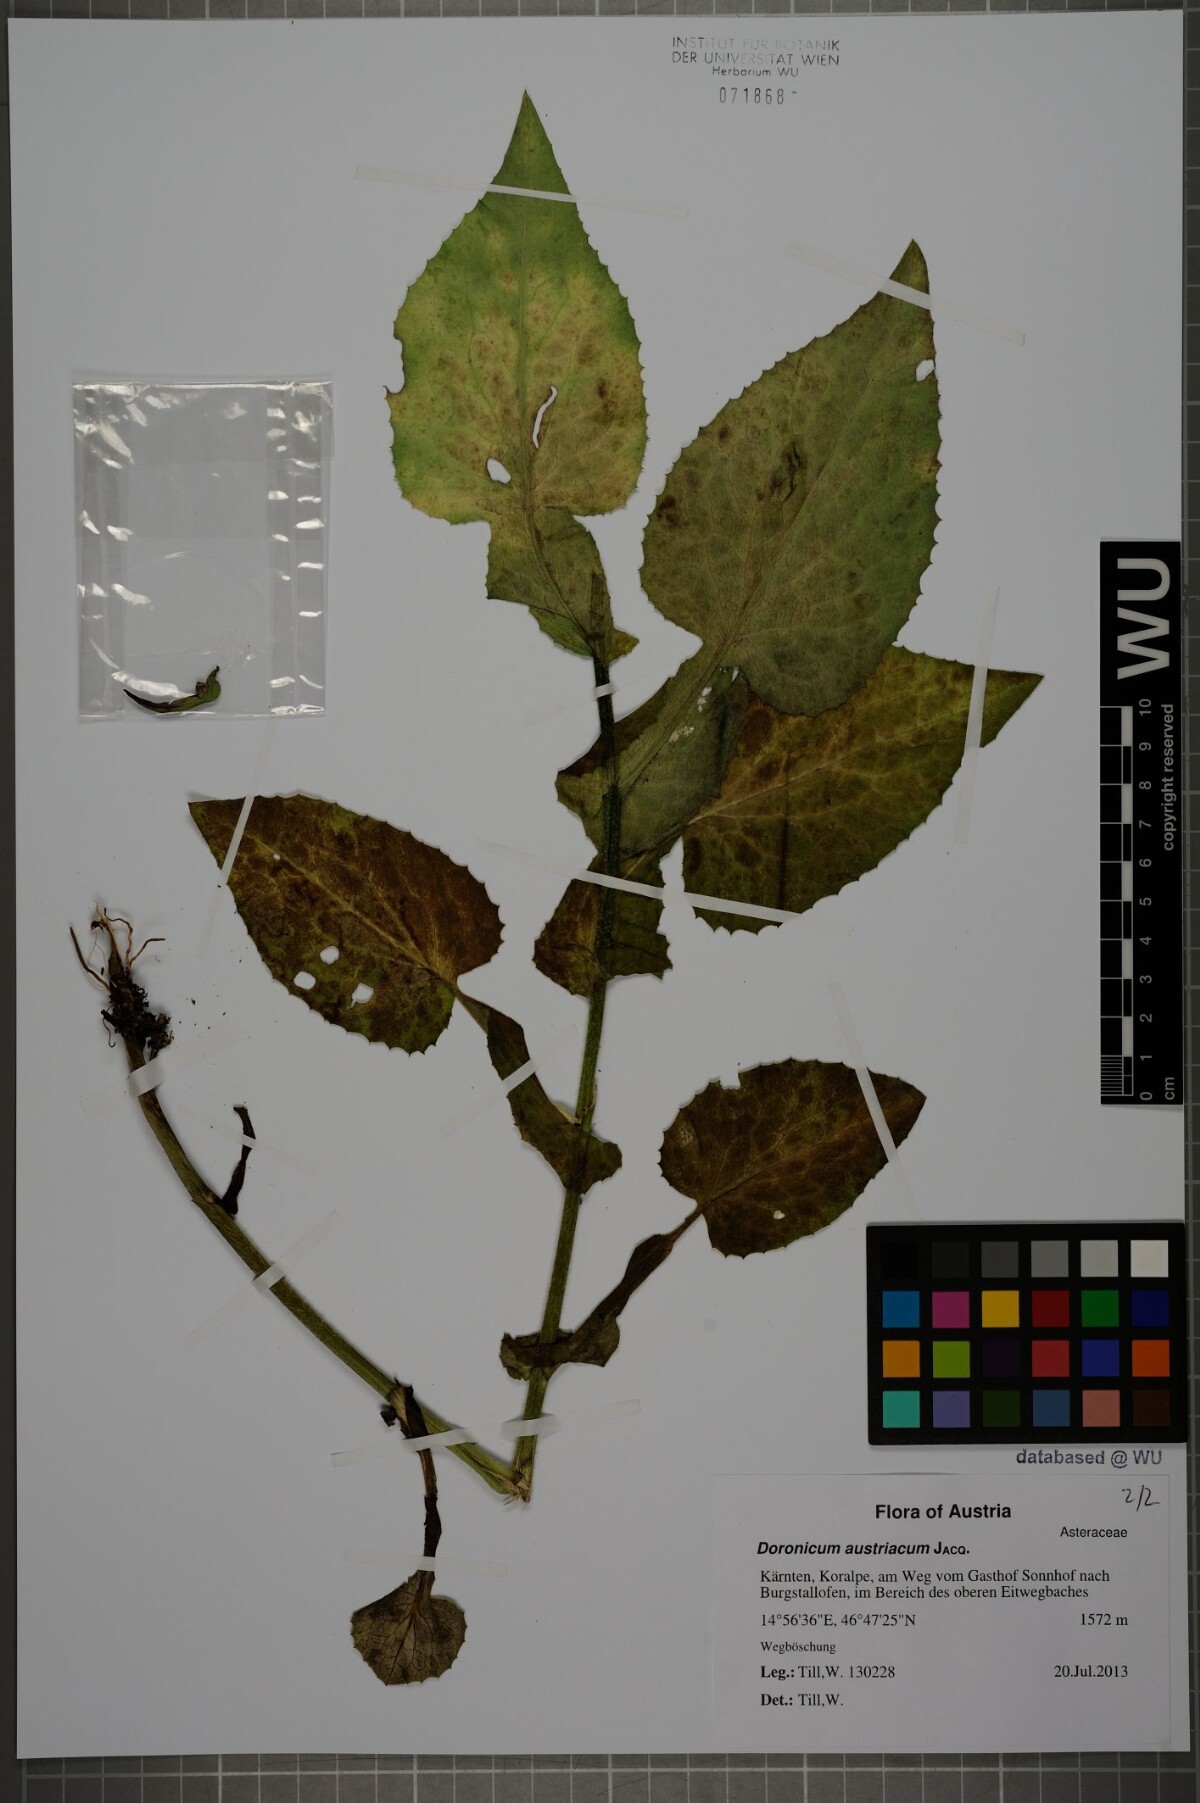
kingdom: Plantae
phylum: Tracheophyta
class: Magnoliopsida
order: Asterales
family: Asteraceae
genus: Doronicum
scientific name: Doronicum austriacum
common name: Austrian leopard's-bane
